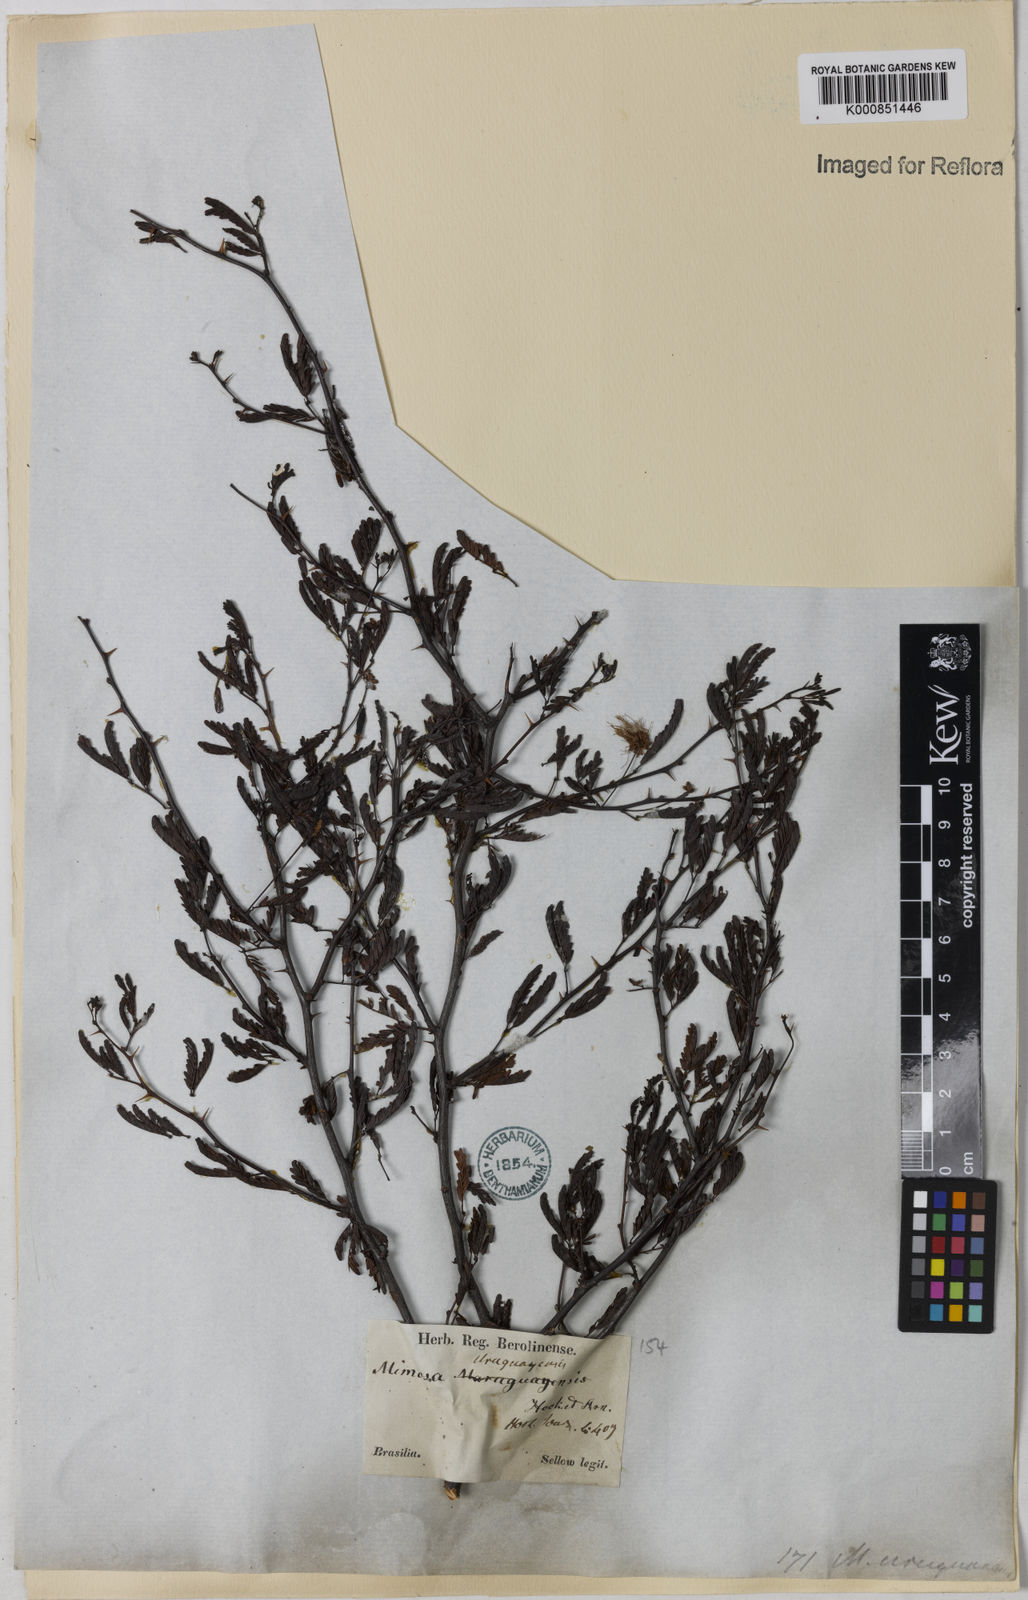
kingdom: Plantae
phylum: Tracheophyta
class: Magnoliopsida
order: Fabales
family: Fabaceae
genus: Mimosa
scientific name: Mimosa
